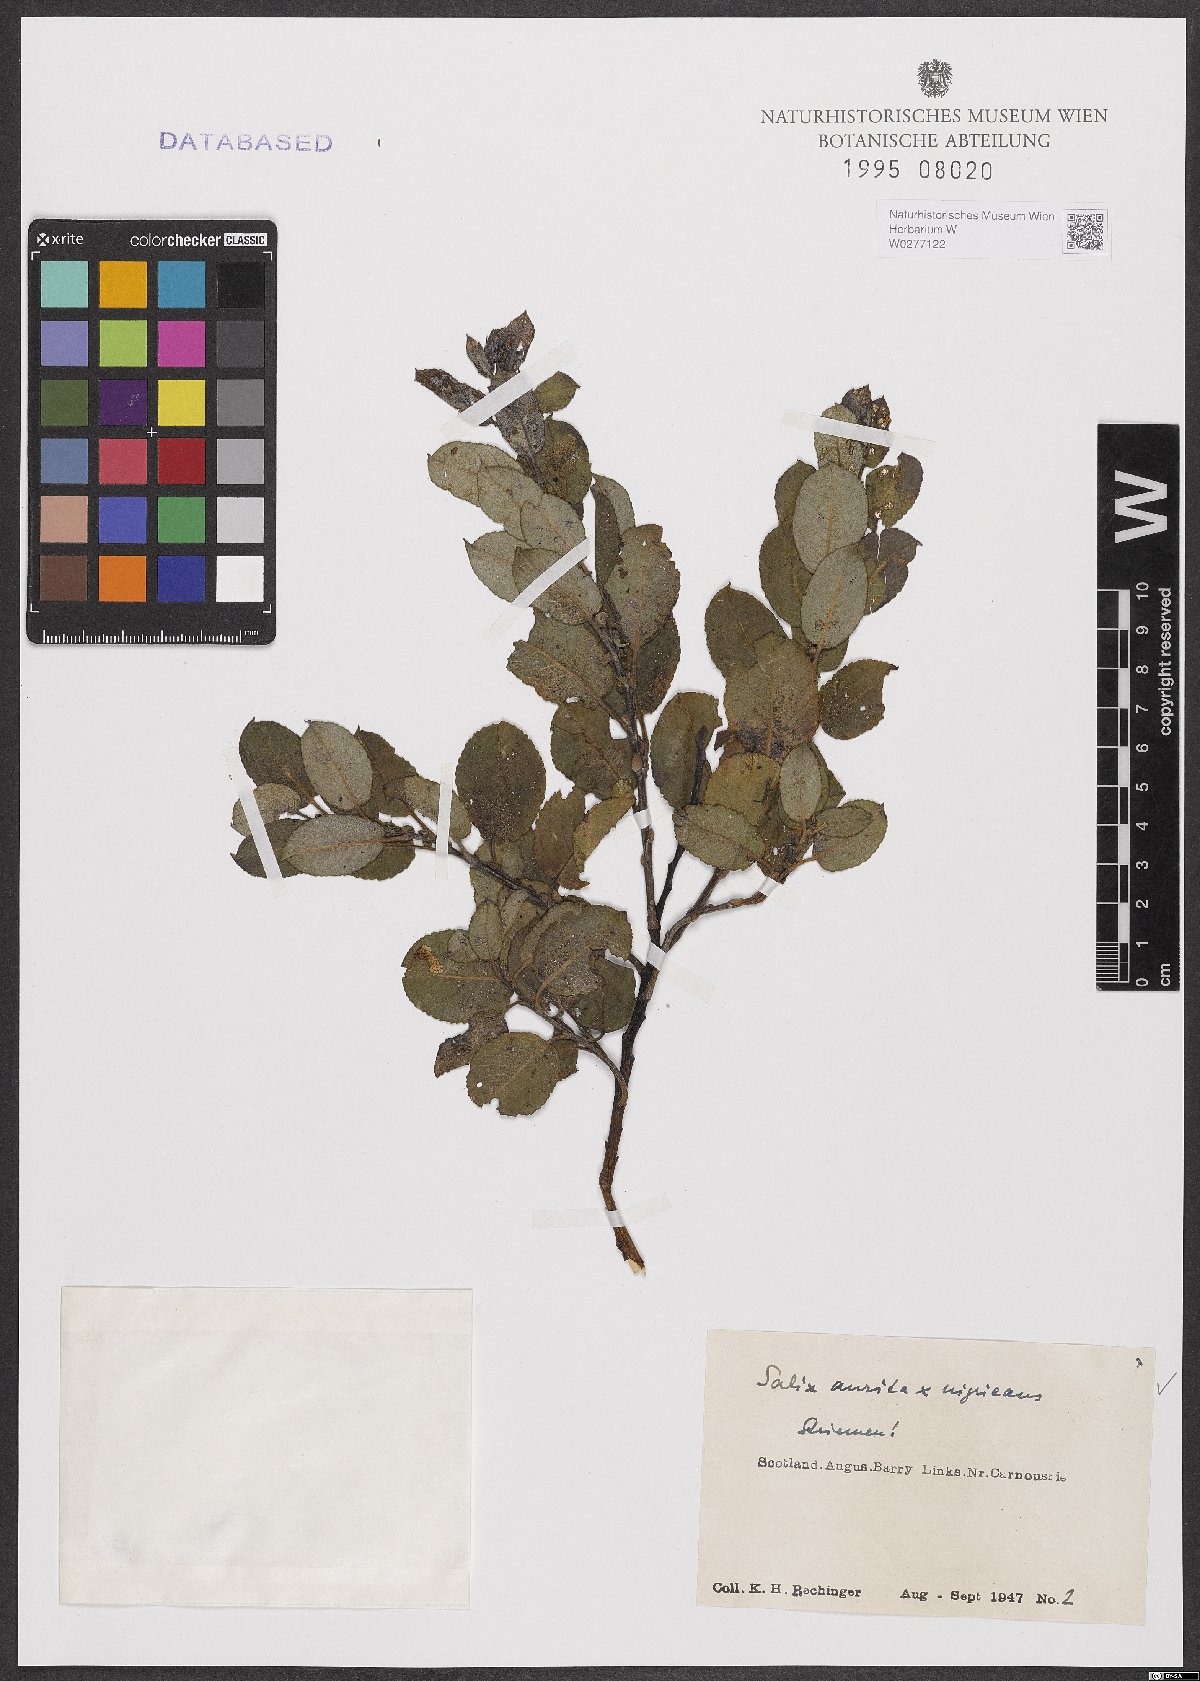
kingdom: Plantae
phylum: Tracheophyta
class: Magnoliopsida
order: Malpighiales
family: Salicaceae
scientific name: Salicaceae
